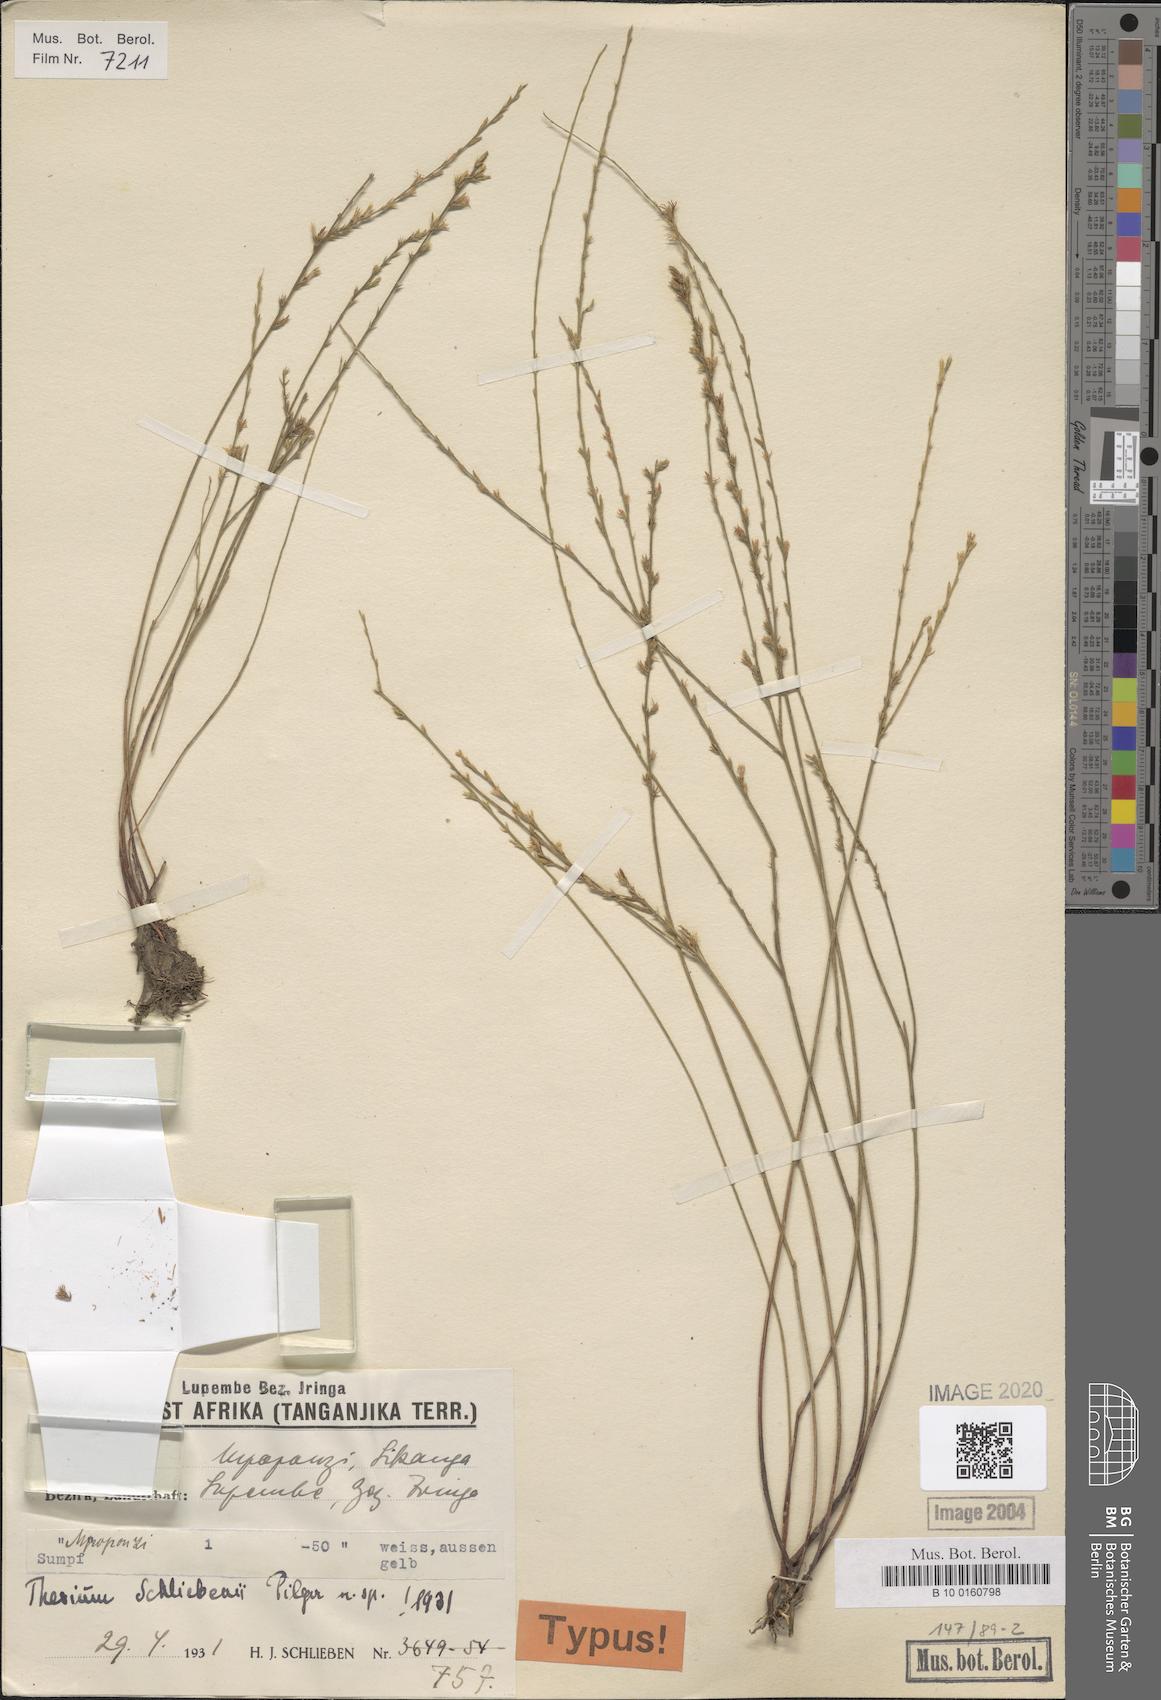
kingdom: Plantae
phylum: Tracheophyta
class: Magnoliopsida
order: Santalales
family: Thesiaceae
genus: Thesium
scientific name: Thesium schliebenii
